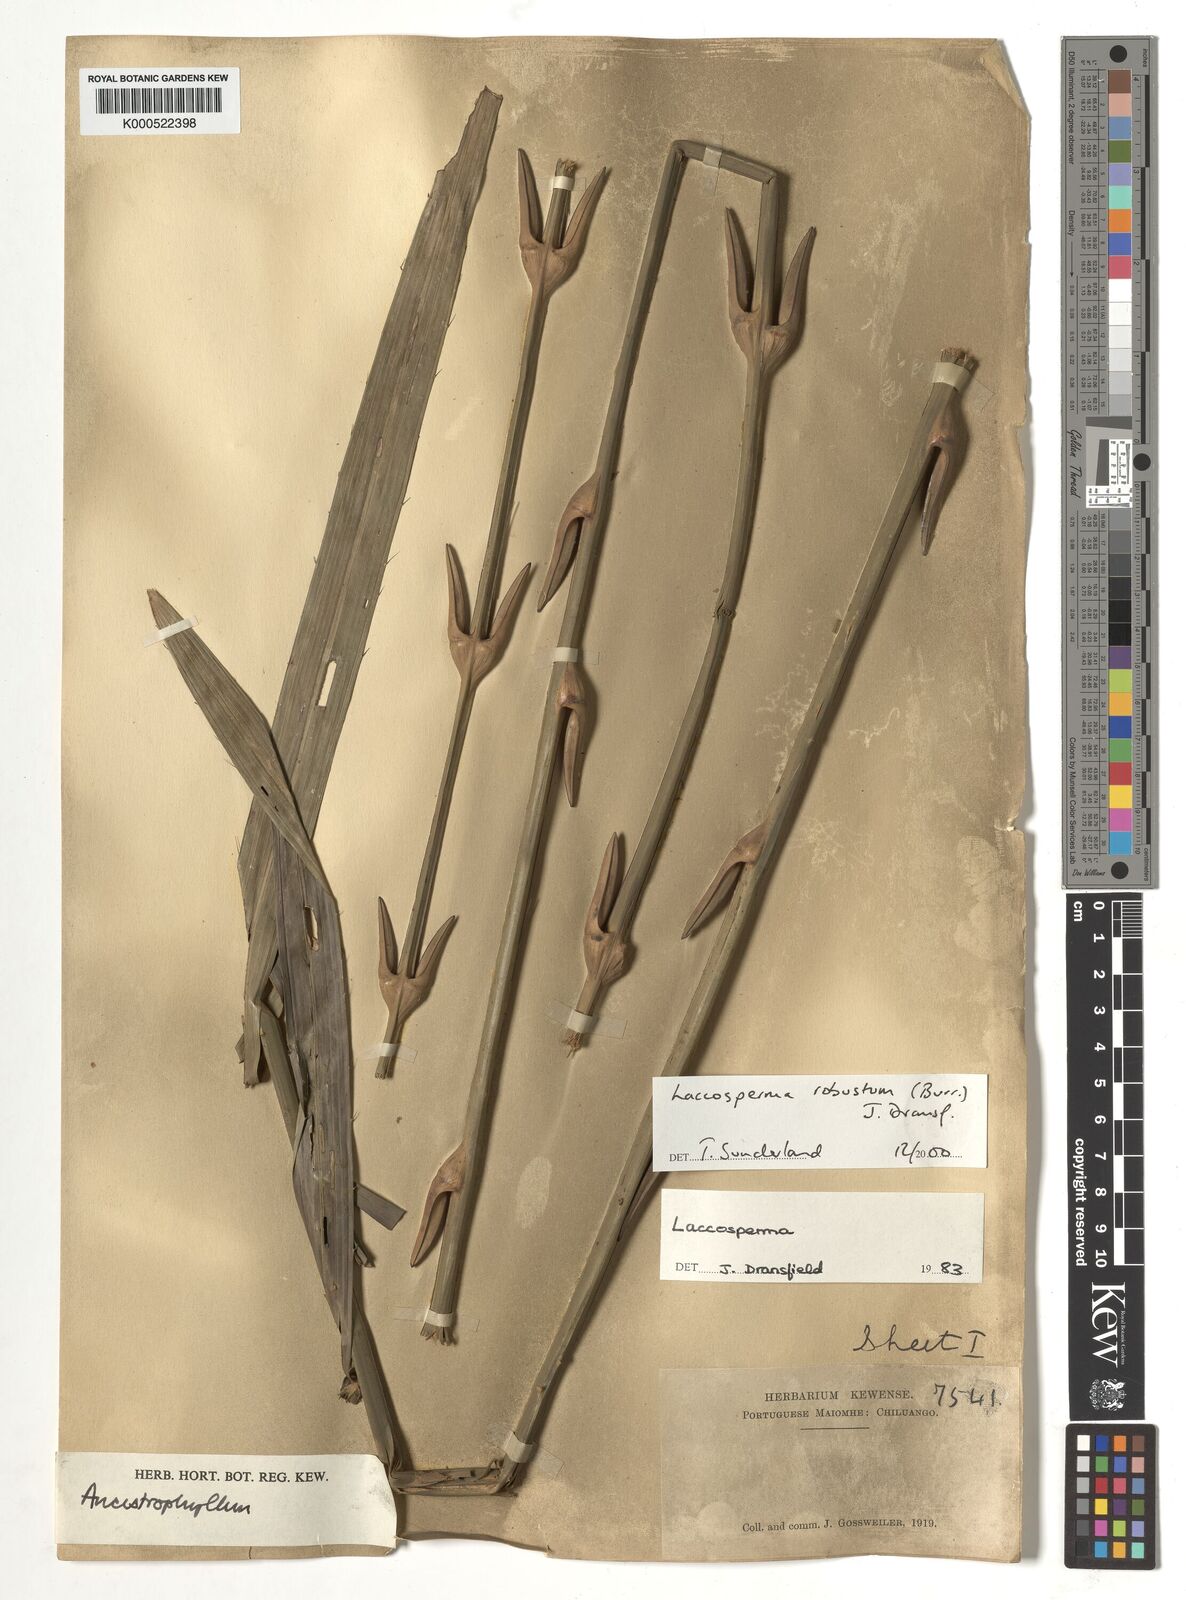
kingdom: Plantae
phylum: Tracheophyta
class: Liliopsida
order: Arecales
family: Arecaceae
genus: Laccosperma
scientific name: Laccosperma robustum
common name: Rattan
